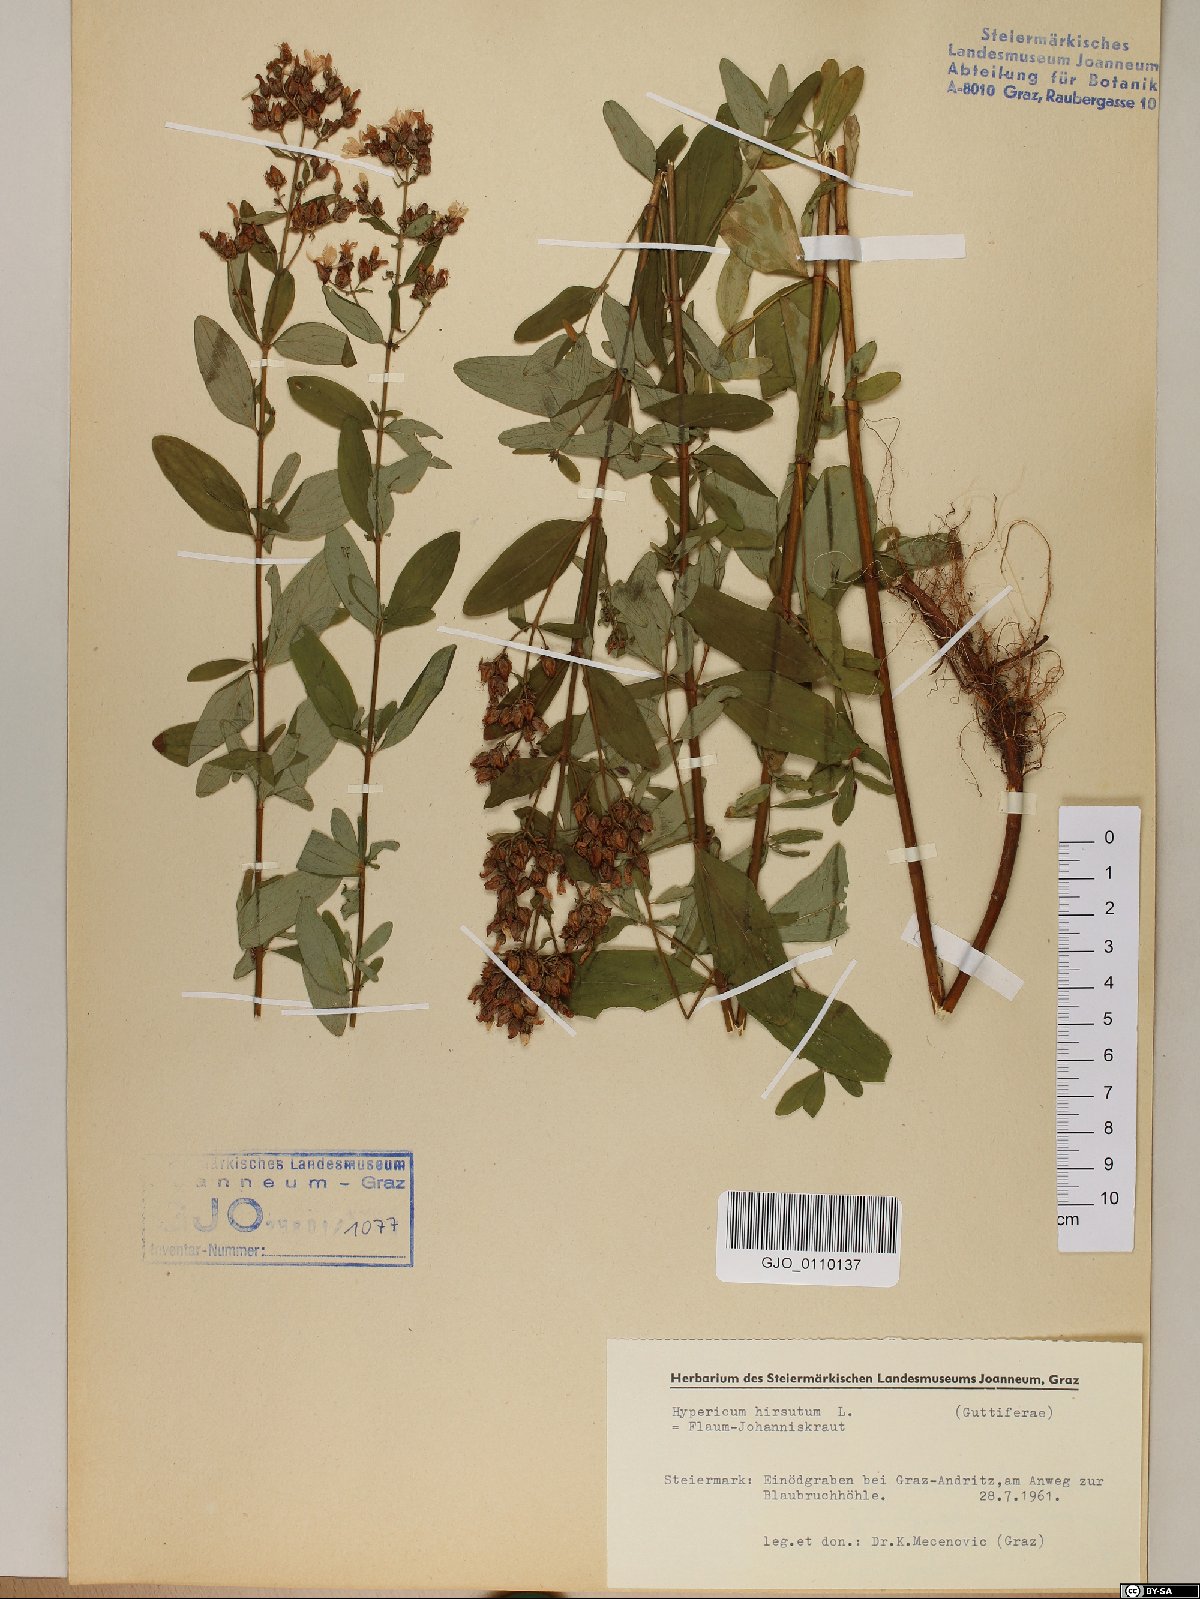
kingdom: Plantae
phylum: Tracheophyta
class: Magnoliopsida
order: Malpighiales
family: Hypericaceae
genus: Hypericum
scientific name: Hypericum hirsutum
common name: Hairy st. john's-wort
